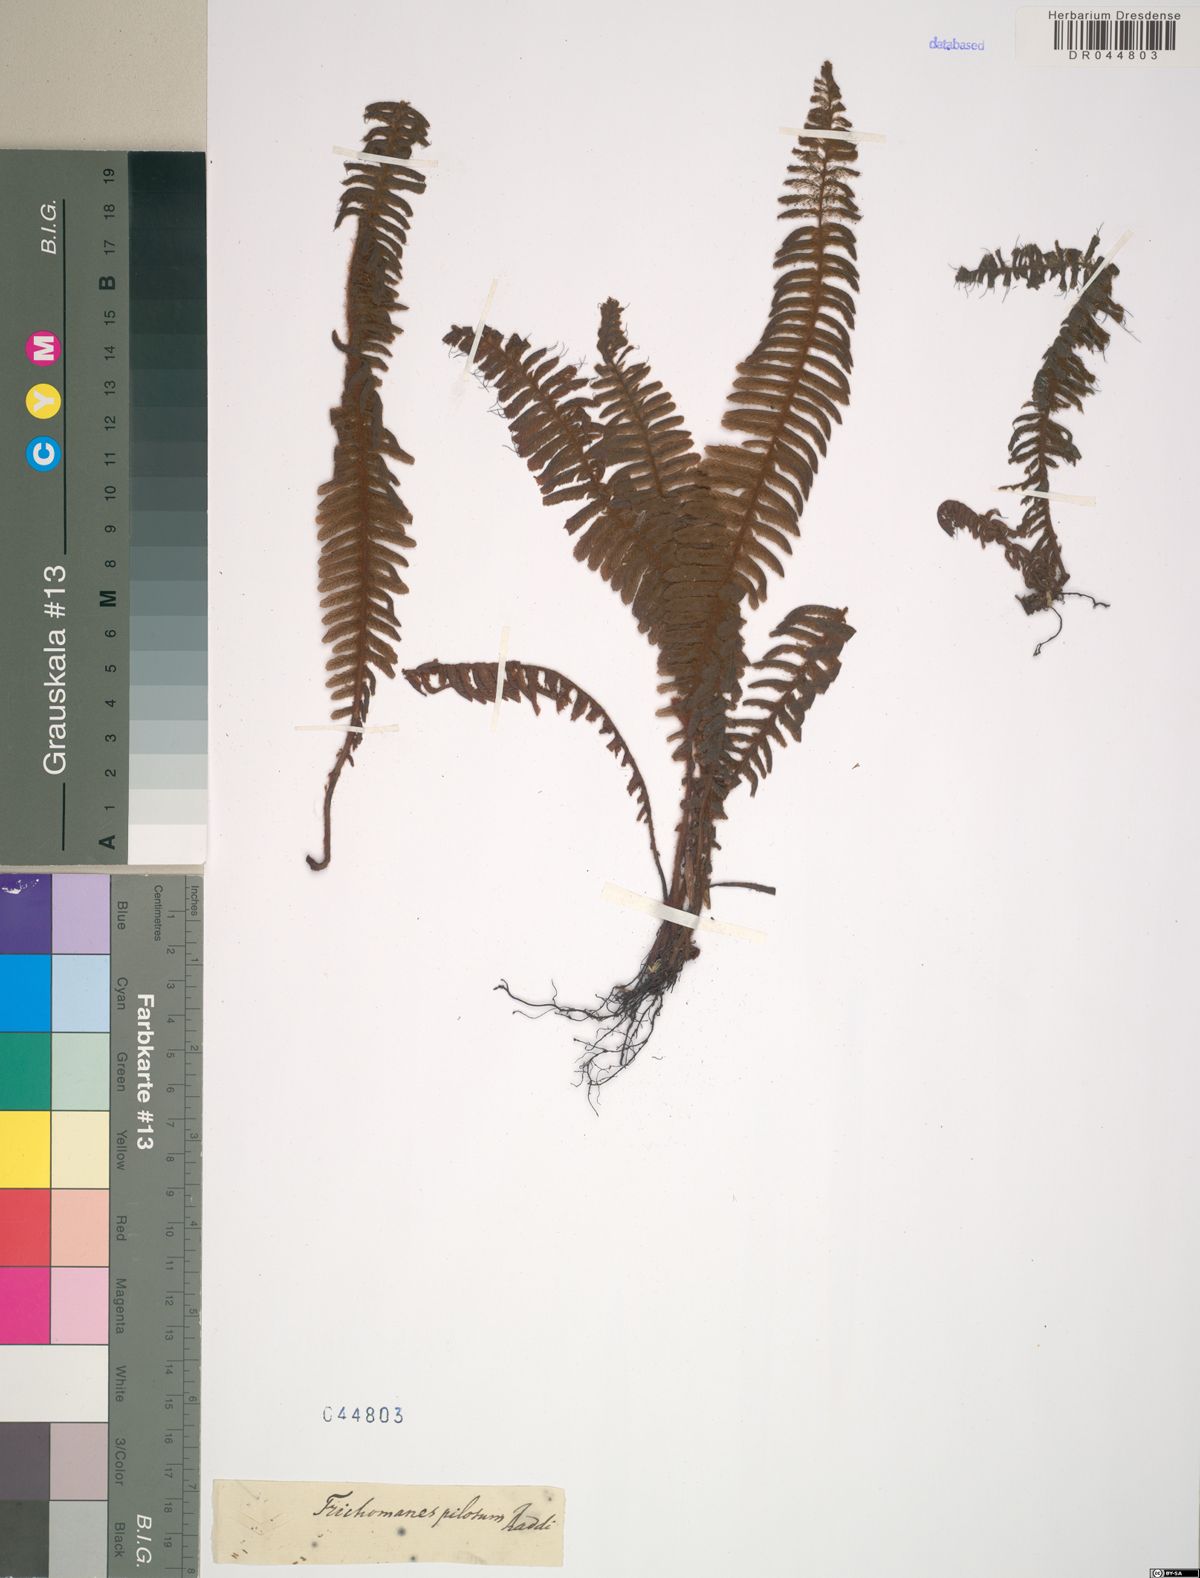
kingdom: Plantae
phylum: Tracheophyta
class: Polypodiopsida
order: Hymenophyllales
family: Hymenophyllaceae
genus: Trichomanes
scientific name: Trichomanes pilosum
